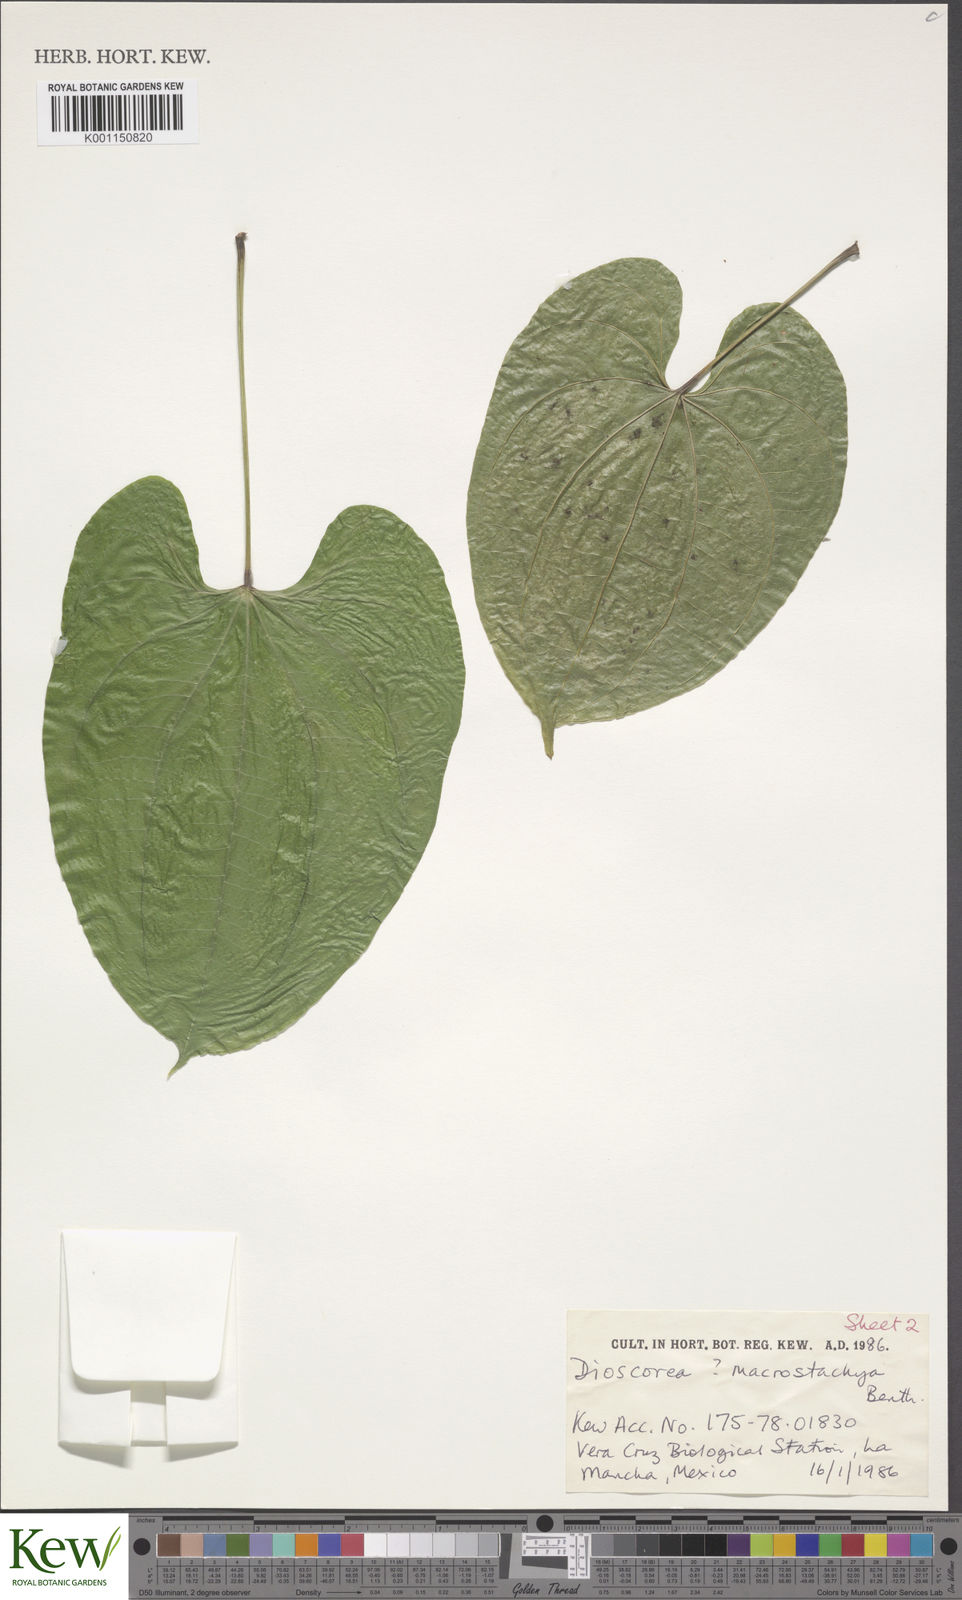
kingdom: Plantae
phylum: Tracheophyta
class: Liliopsida
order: Dioscoreales
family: Dioscoreaceae
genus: Dioscorea
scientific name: Dioscorea mexicana
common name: Mexican yam
